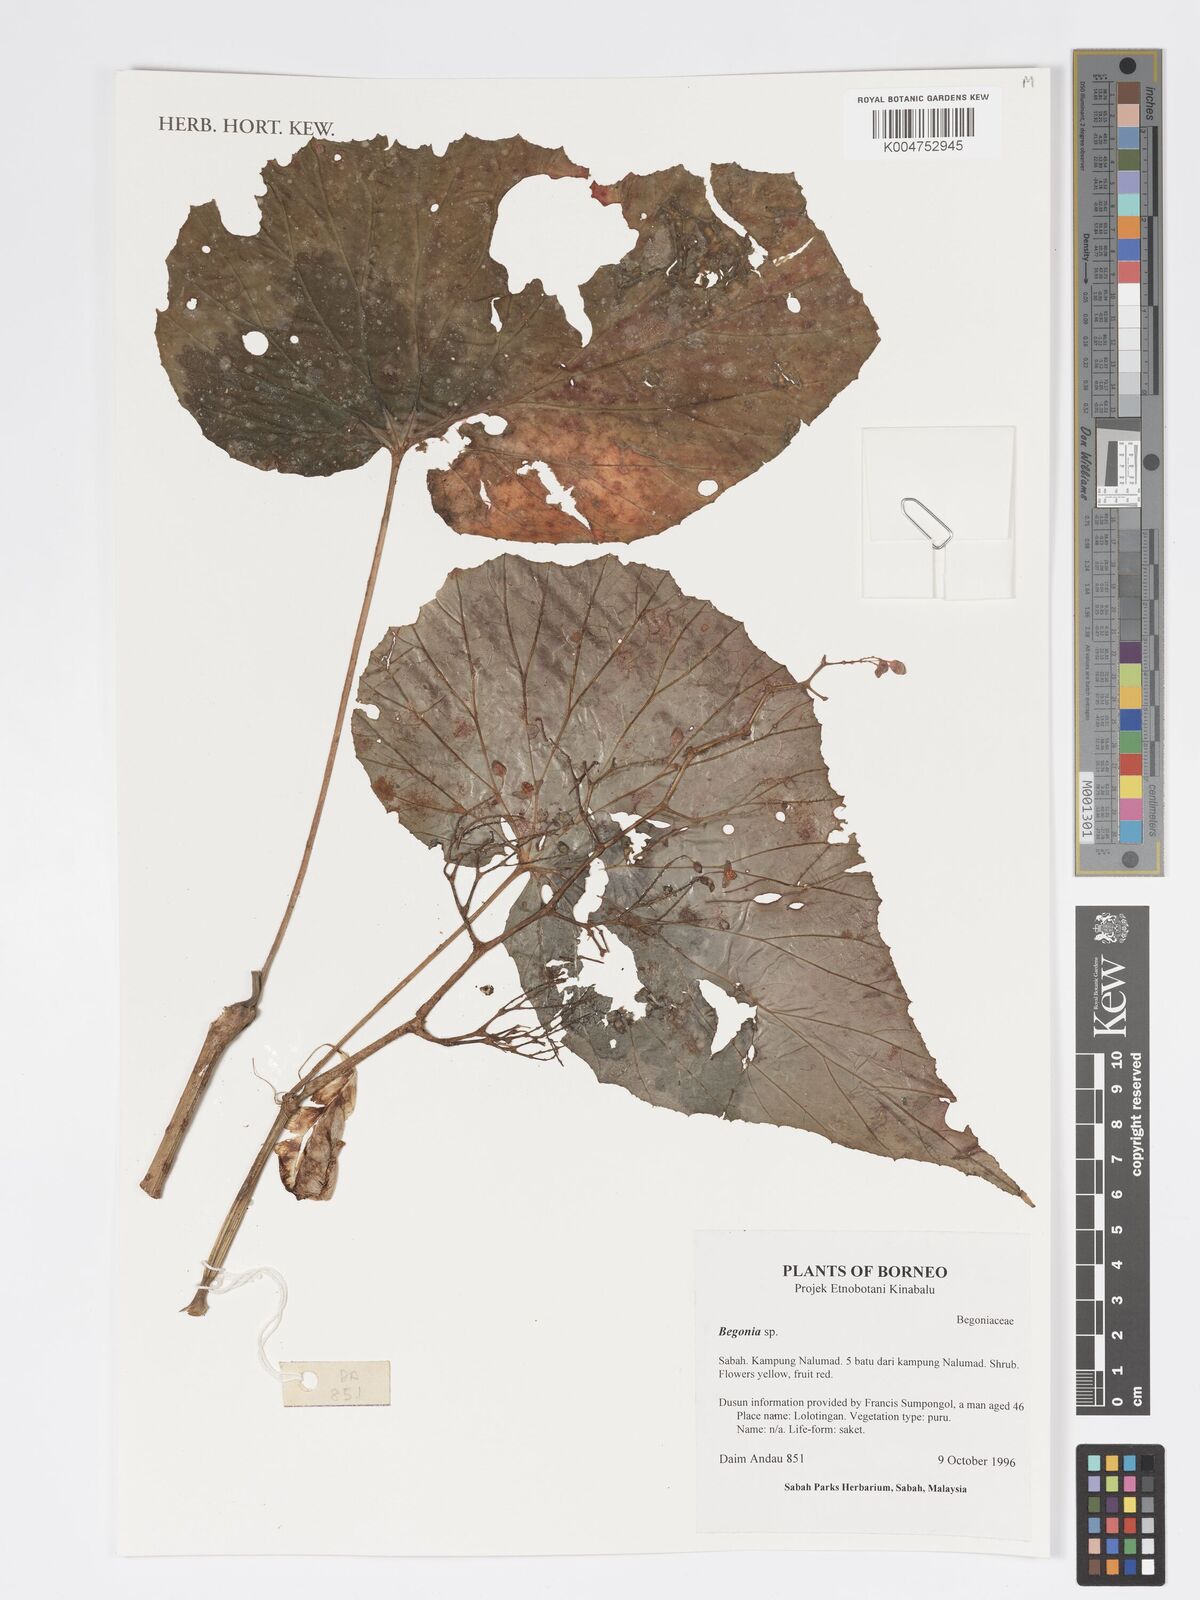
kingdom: Plantae
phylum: Tracheophyta
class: Magnoliopsida
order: Cucurbitales
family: Begoniaceae
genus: Begonia
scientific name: Begonia
